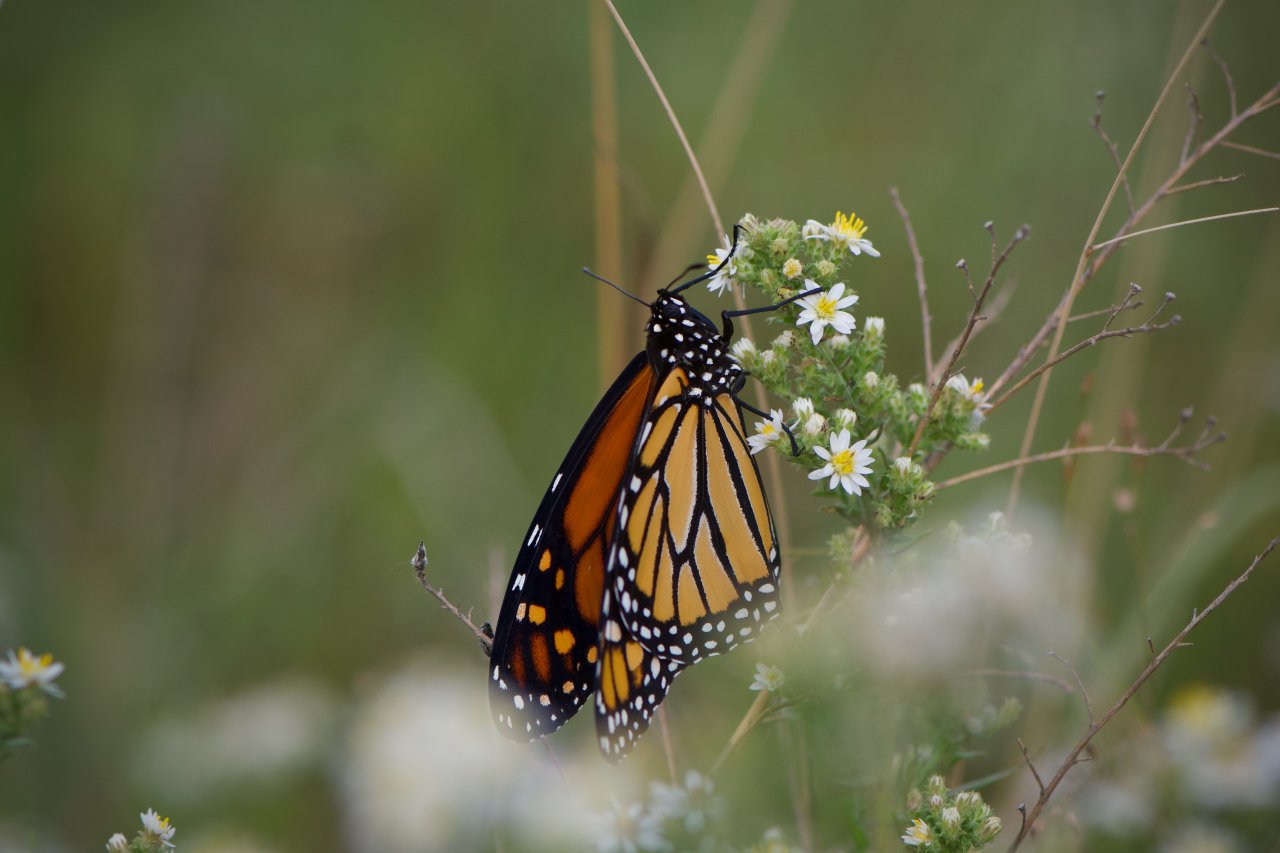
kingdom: Animalia
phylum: Arthropoda
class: Insecta
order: Lepidoptera
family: Nymphalidae
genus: Danaus
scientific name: Danaus plexippus
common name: Monarch
